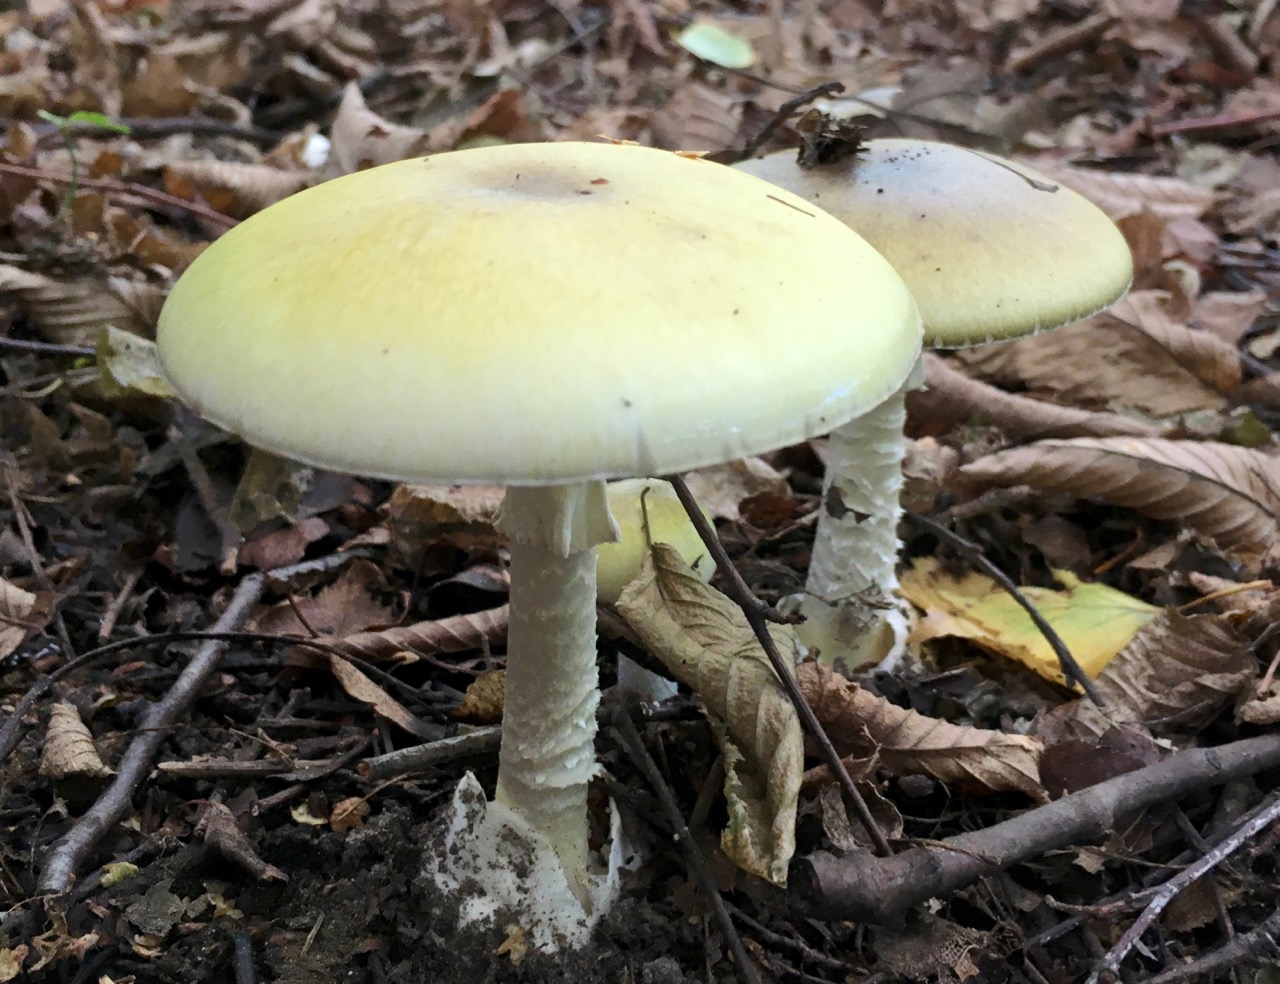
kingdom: Fungi
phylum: Basidiomycota
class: Agaricomycetes
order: Agaricales
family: Amanitaceae
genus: Amanita
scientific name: Amanita phalloides
